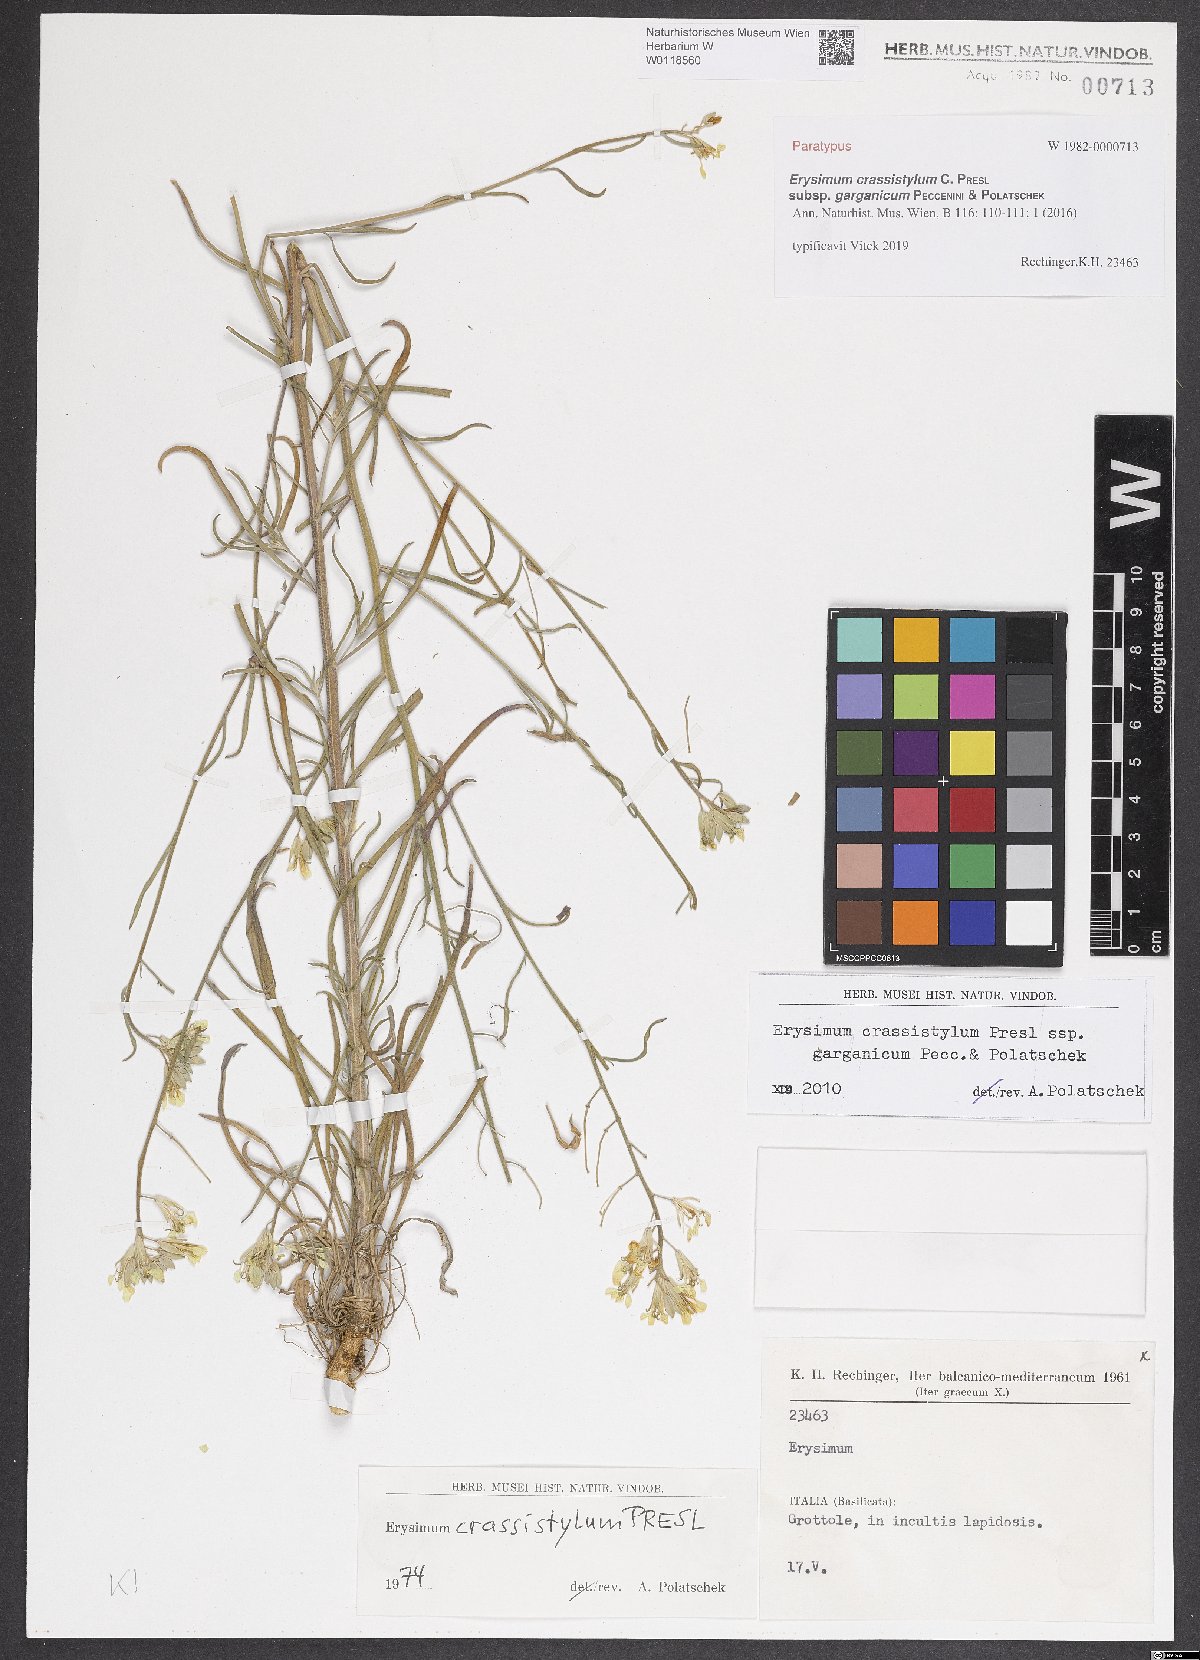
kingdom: Plantae
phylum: Tracheophyta
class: Magnoliopsida
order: Brassicales
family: Brassicaceae
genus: Erysimum
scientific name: Erysimum crassistylum
